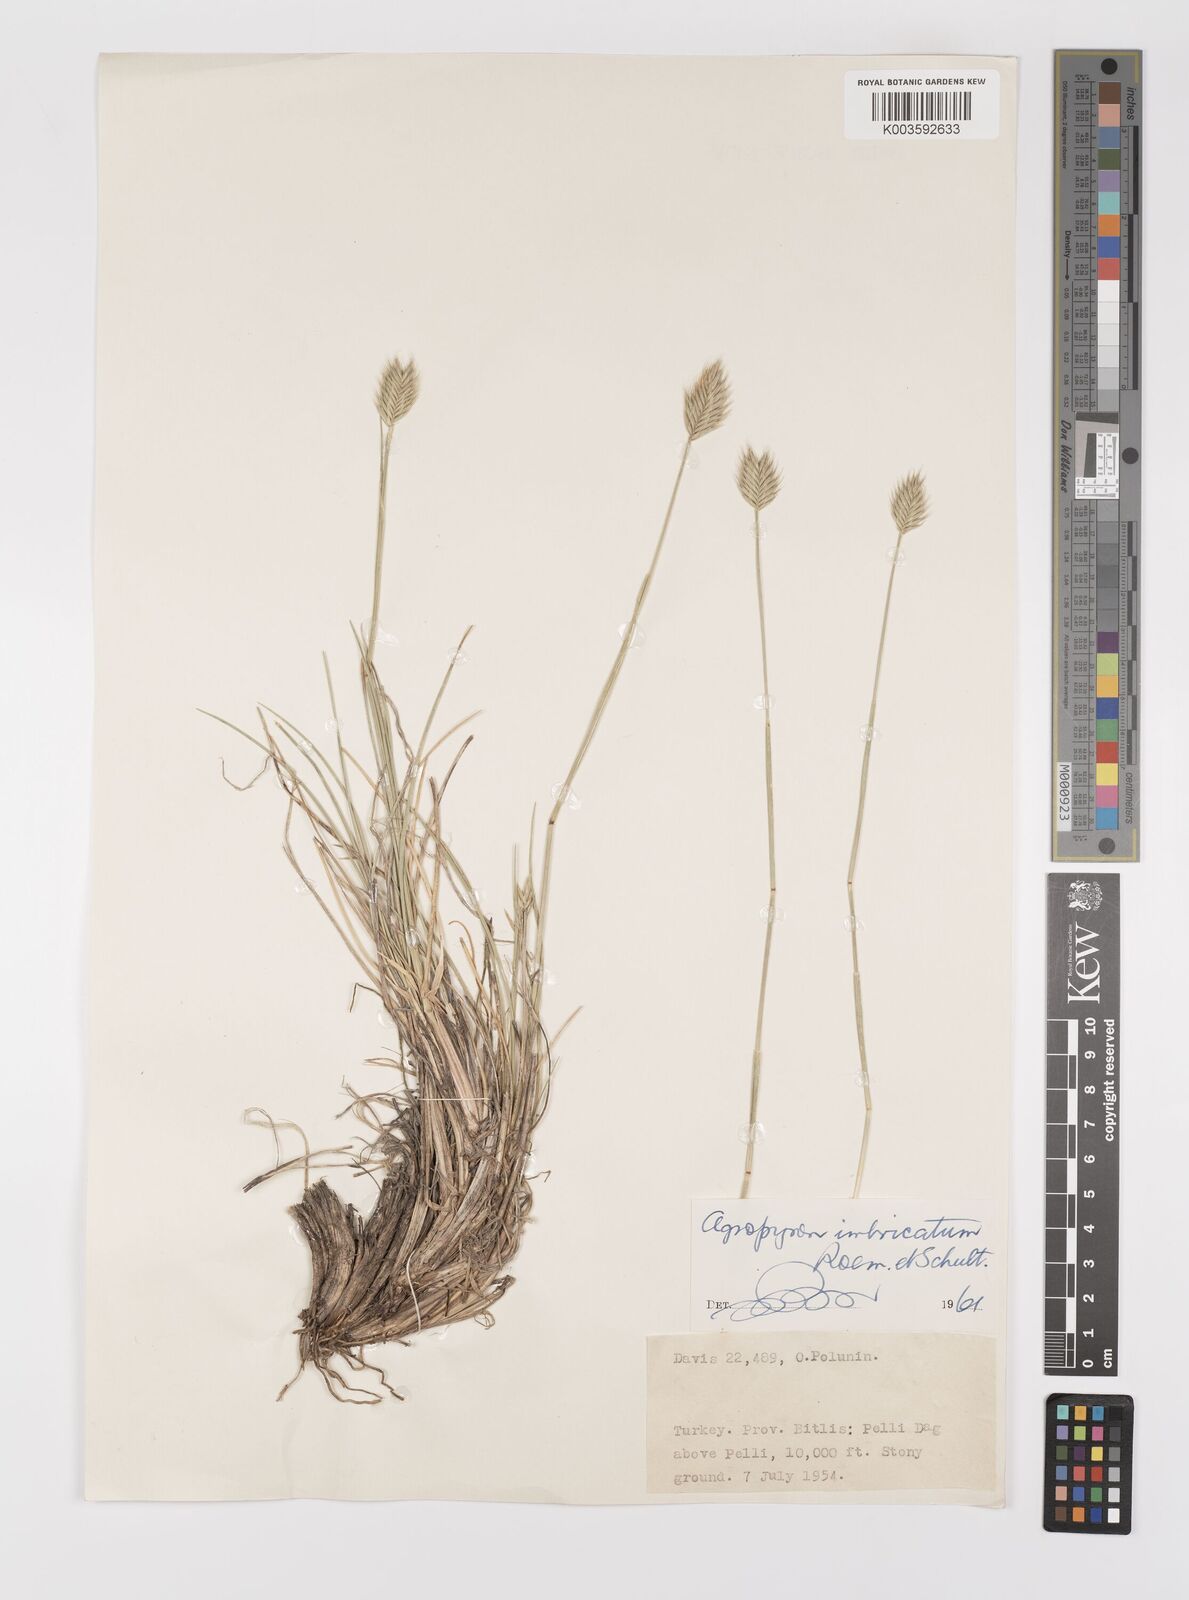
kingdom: Plantae
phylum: Tracheophyta
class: Liliopsida
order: Poales
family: Poaceae
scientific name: Poaceae
